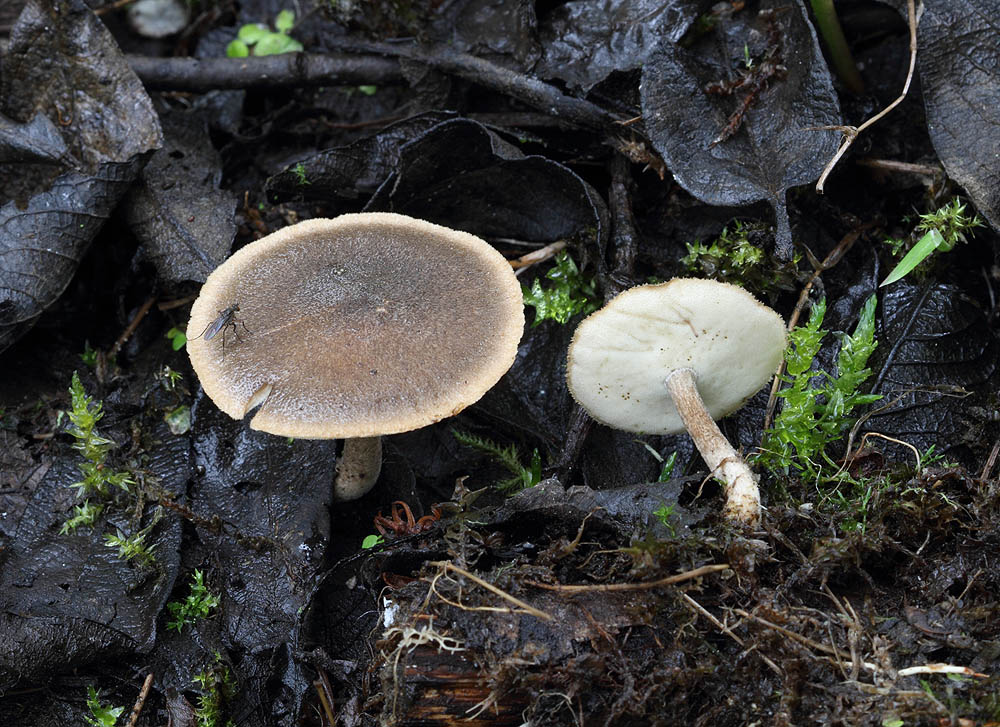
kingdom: Fungi
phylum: Basidiomycota
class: Agaricomycetes
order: Polyporales
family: Polyporaceae
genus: Lentinus
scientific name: Lentinus substrictus
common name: forårs-stilkporesvamp
